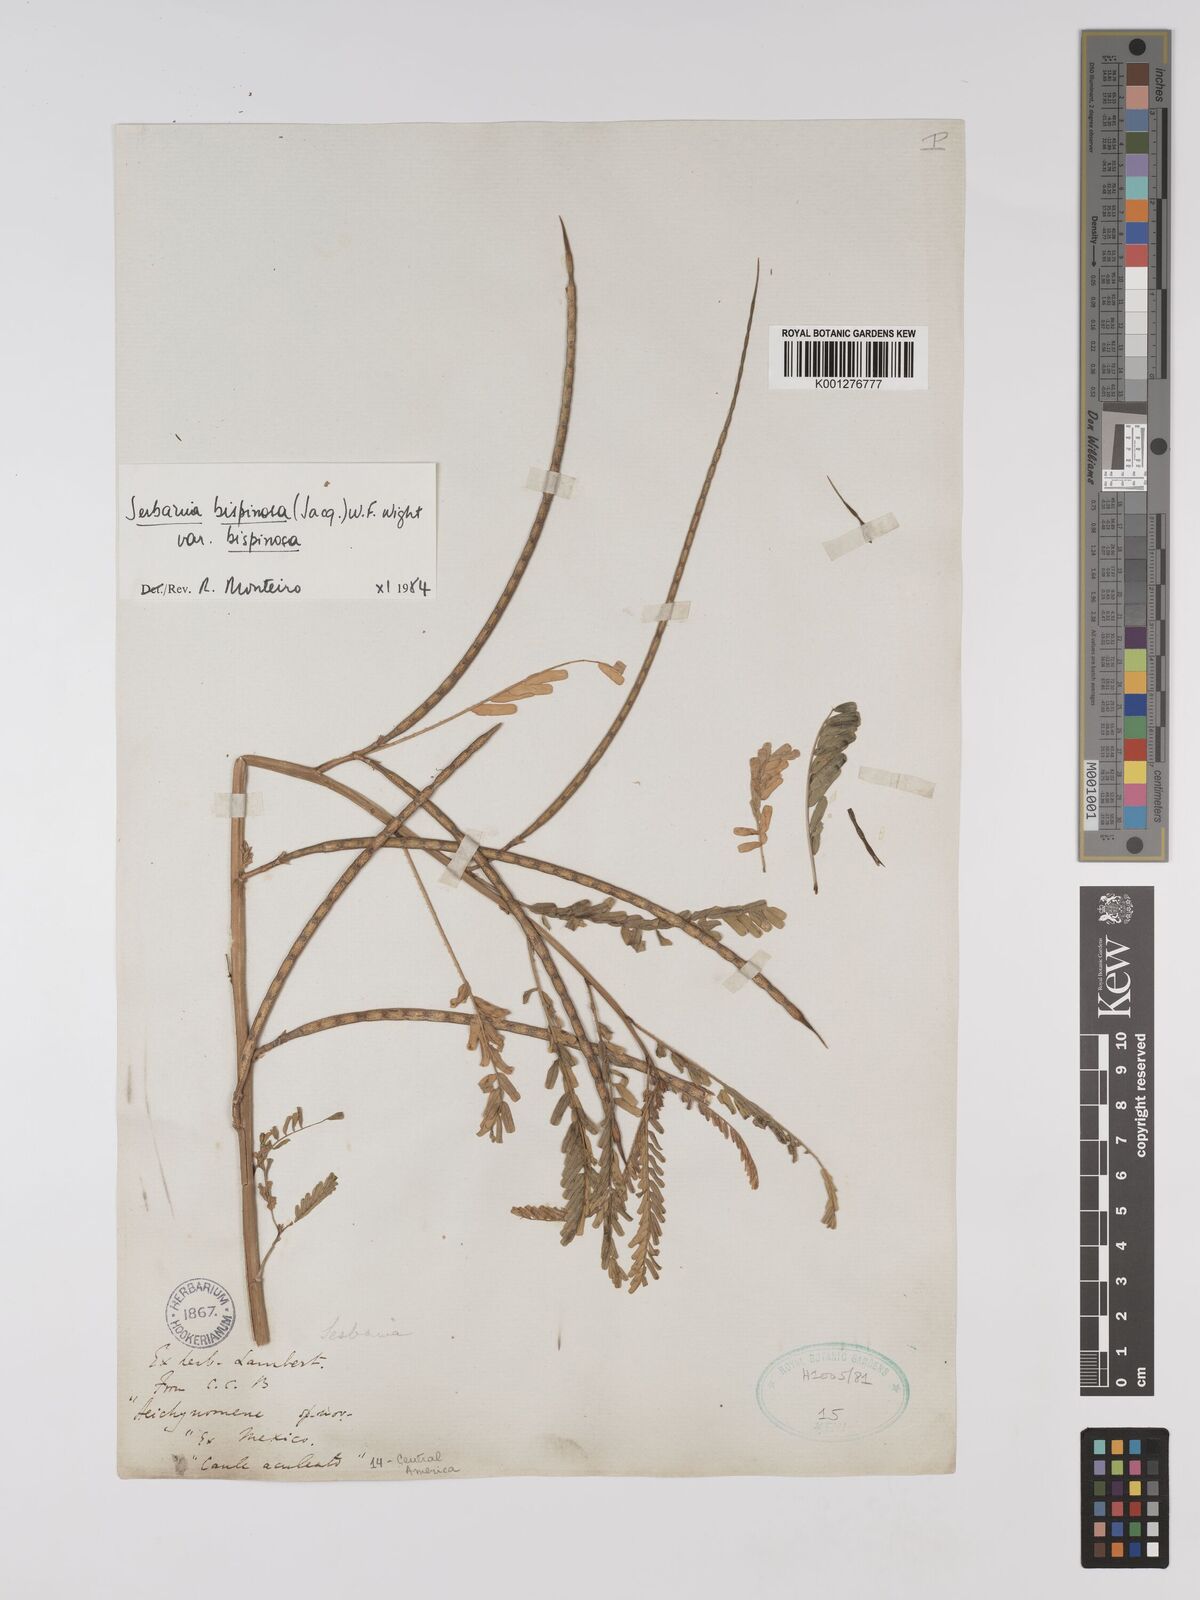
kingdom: Plantae
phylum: Tracheophyta
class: Magnoliopsida
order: Fabales
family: Fabaceae
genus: Sesbania
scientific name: Sesbania bispinosa
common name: Sesbania pea
